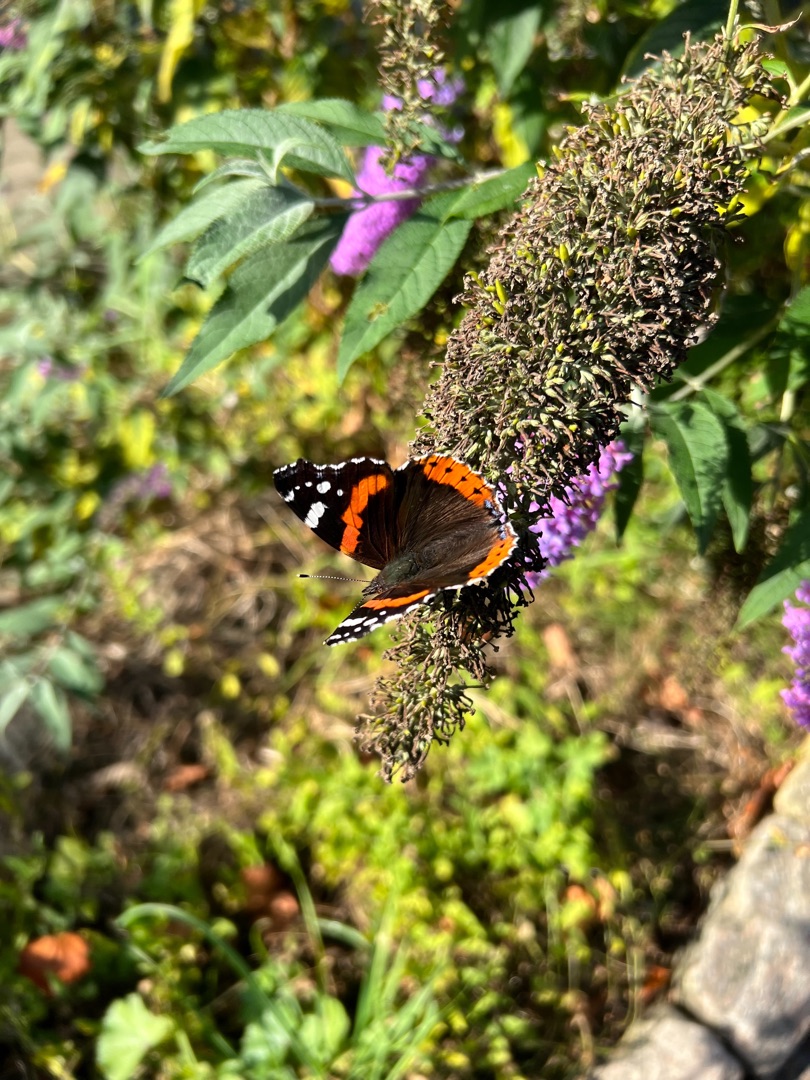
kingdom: Animalia
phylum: Arthropoda
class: Insecta
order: Lepidoptera
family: Nymphalidae
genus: Vanessa
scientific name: Vanessa atalanta
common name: Admiral
